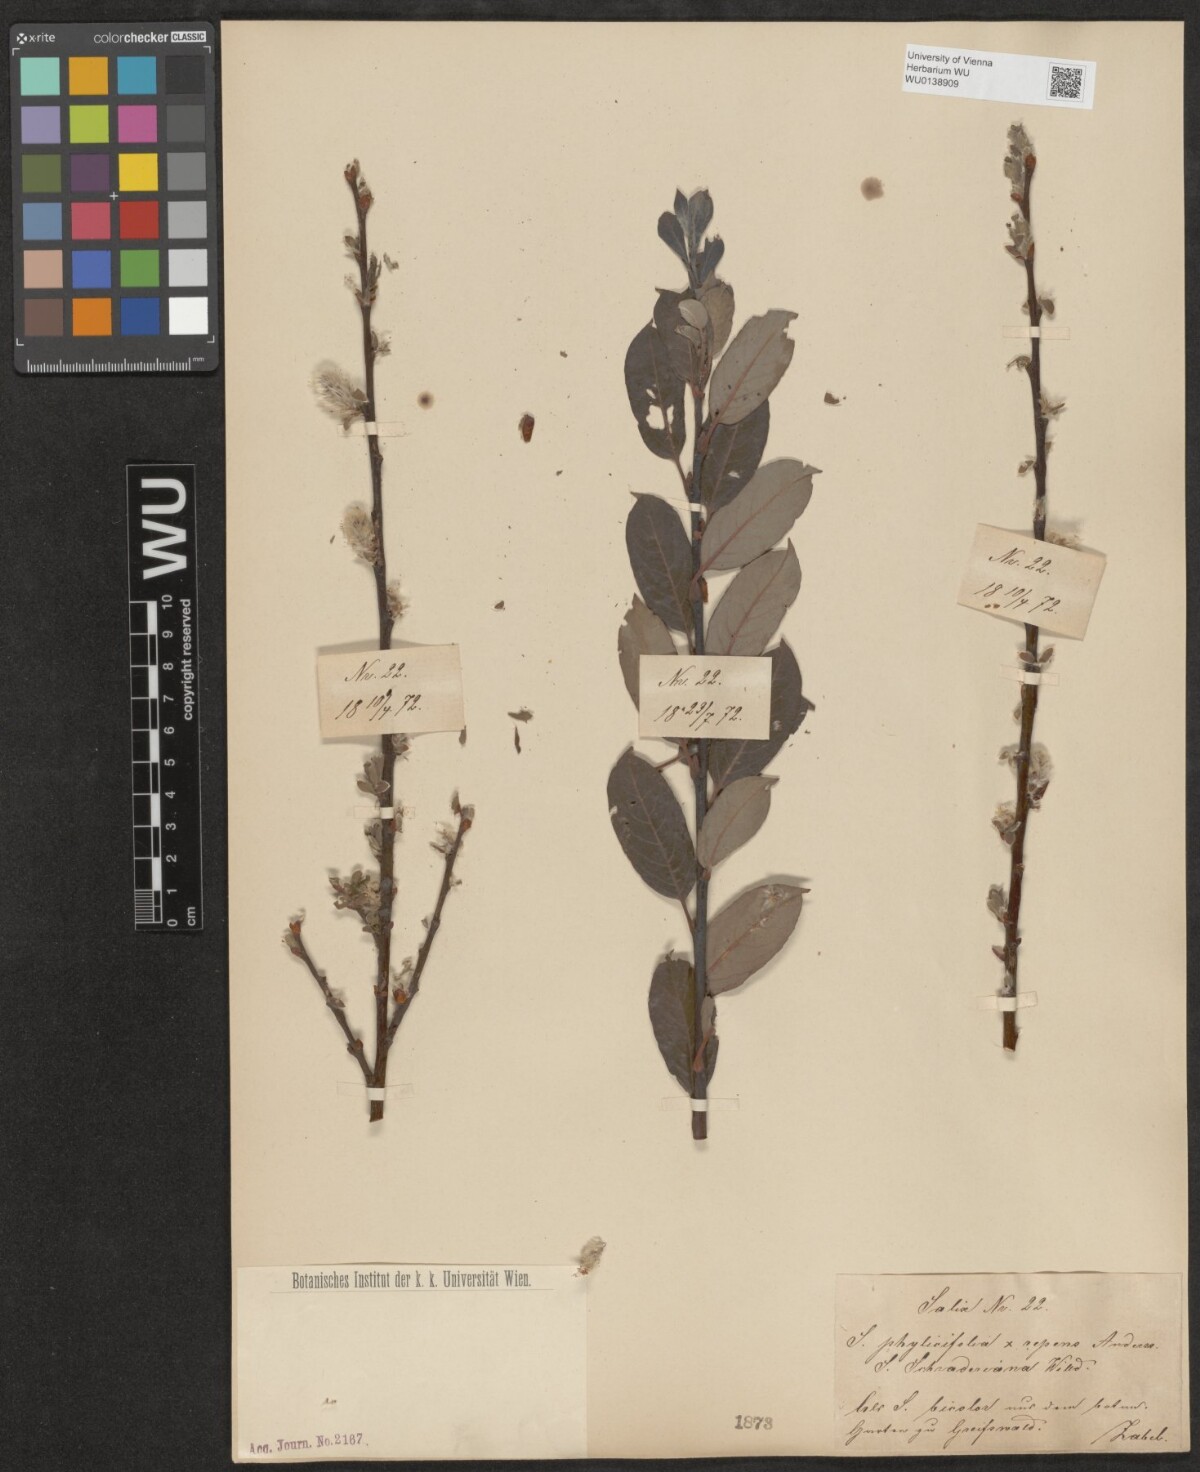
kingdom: Plantae
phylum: Tracheophyta
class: Magnoliopsida
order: Malpighiales
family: Salicaceae
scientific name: Salicaceae
